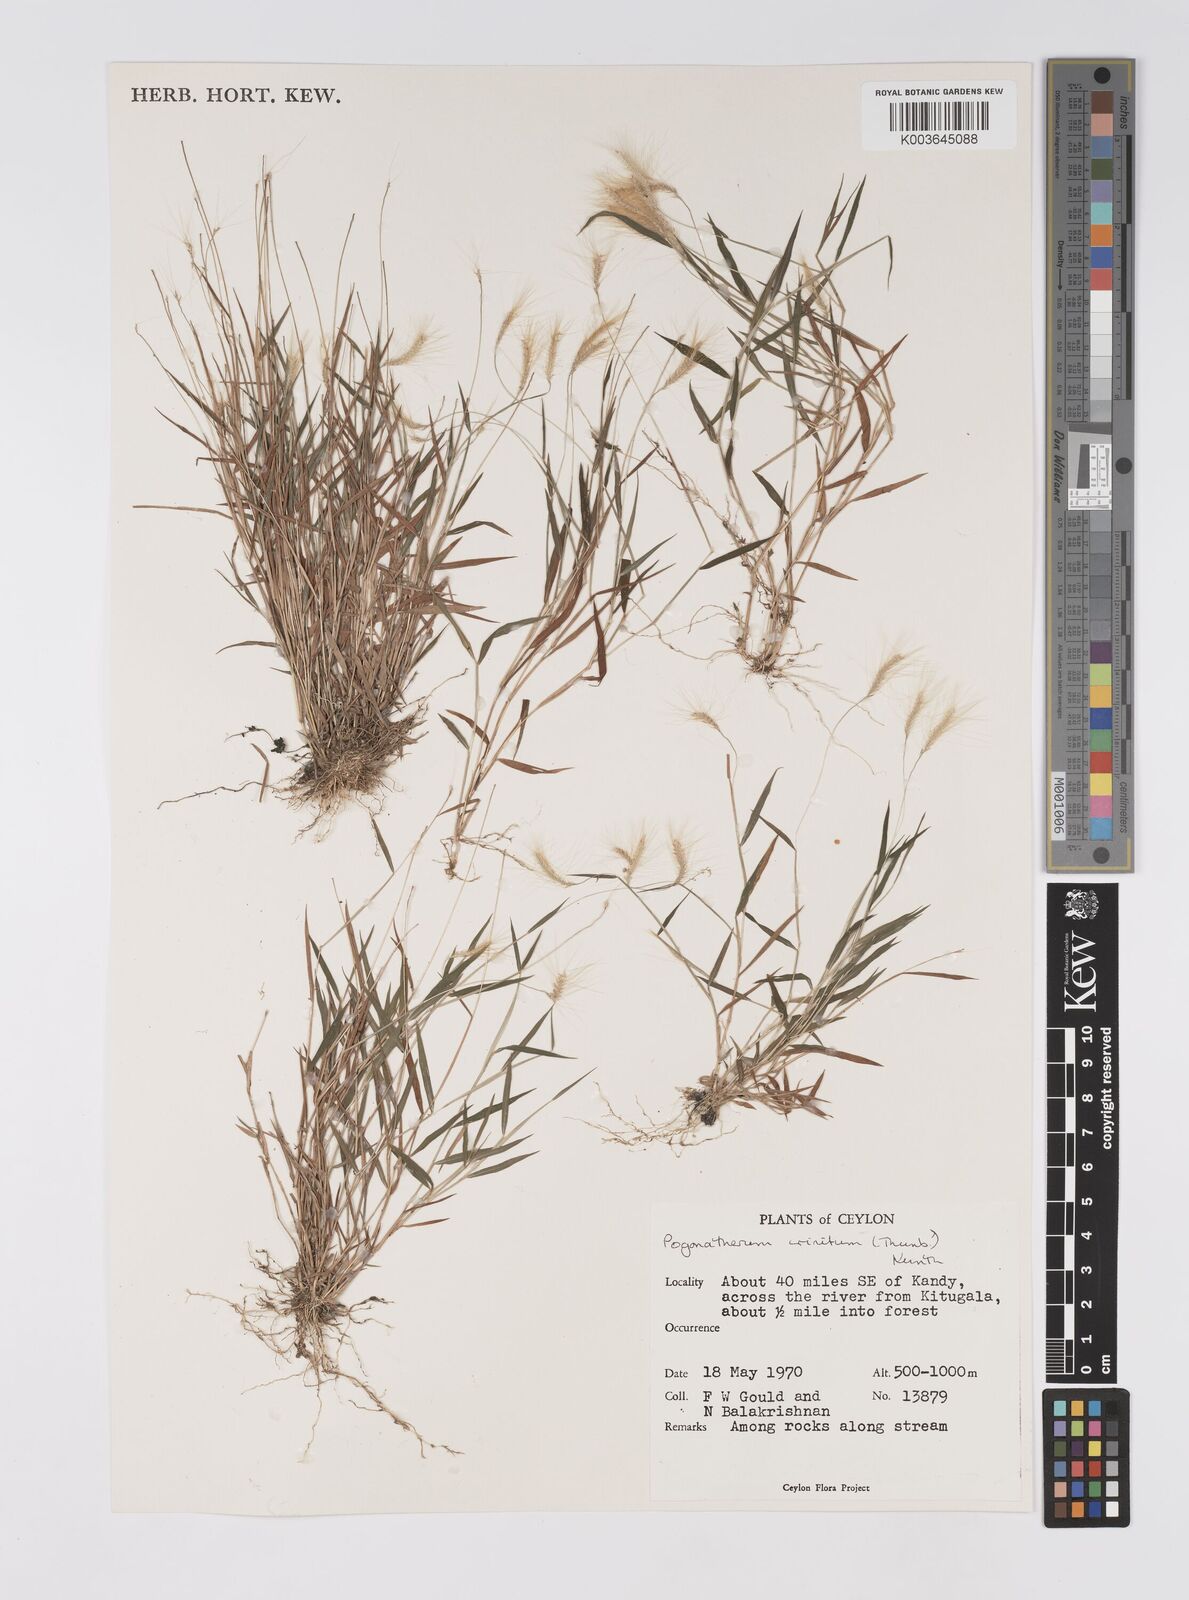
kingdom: Plantae
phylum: Tracheophyta
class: Liliopsida
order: Poales
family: Poaceae
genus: Pogonatherum
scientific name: Pogonatherum crinitum
